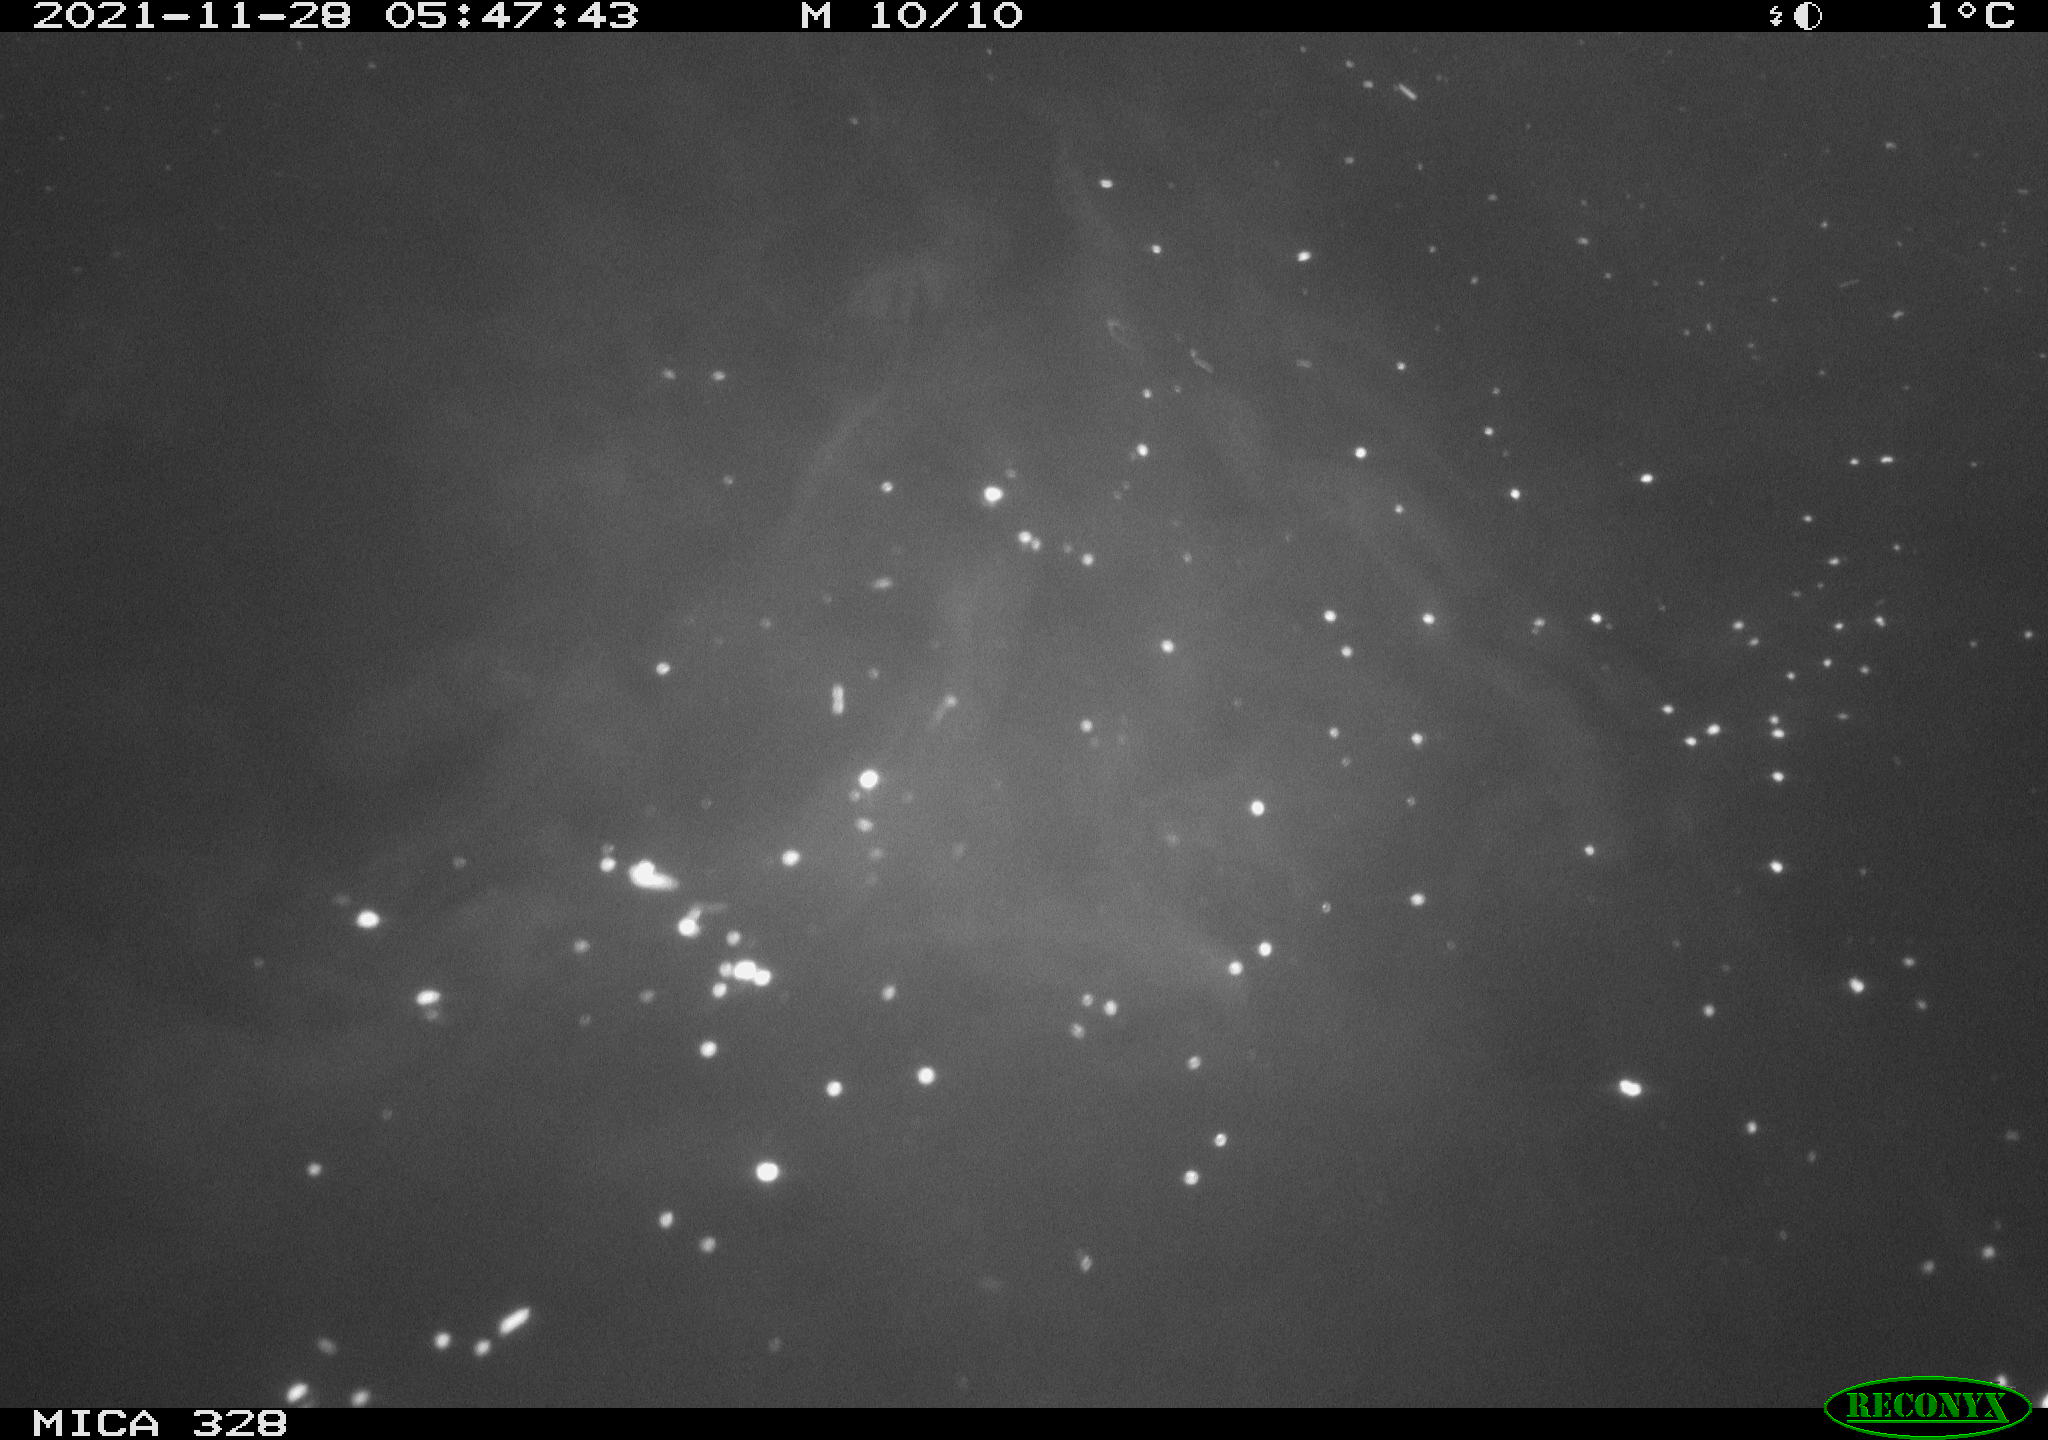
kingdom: Animalia
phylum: Chordata
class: Mammalia
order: Rodentia
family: Cricetidae
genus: Ondatra
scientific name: Ondatra zibethicus
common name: Muskrat
